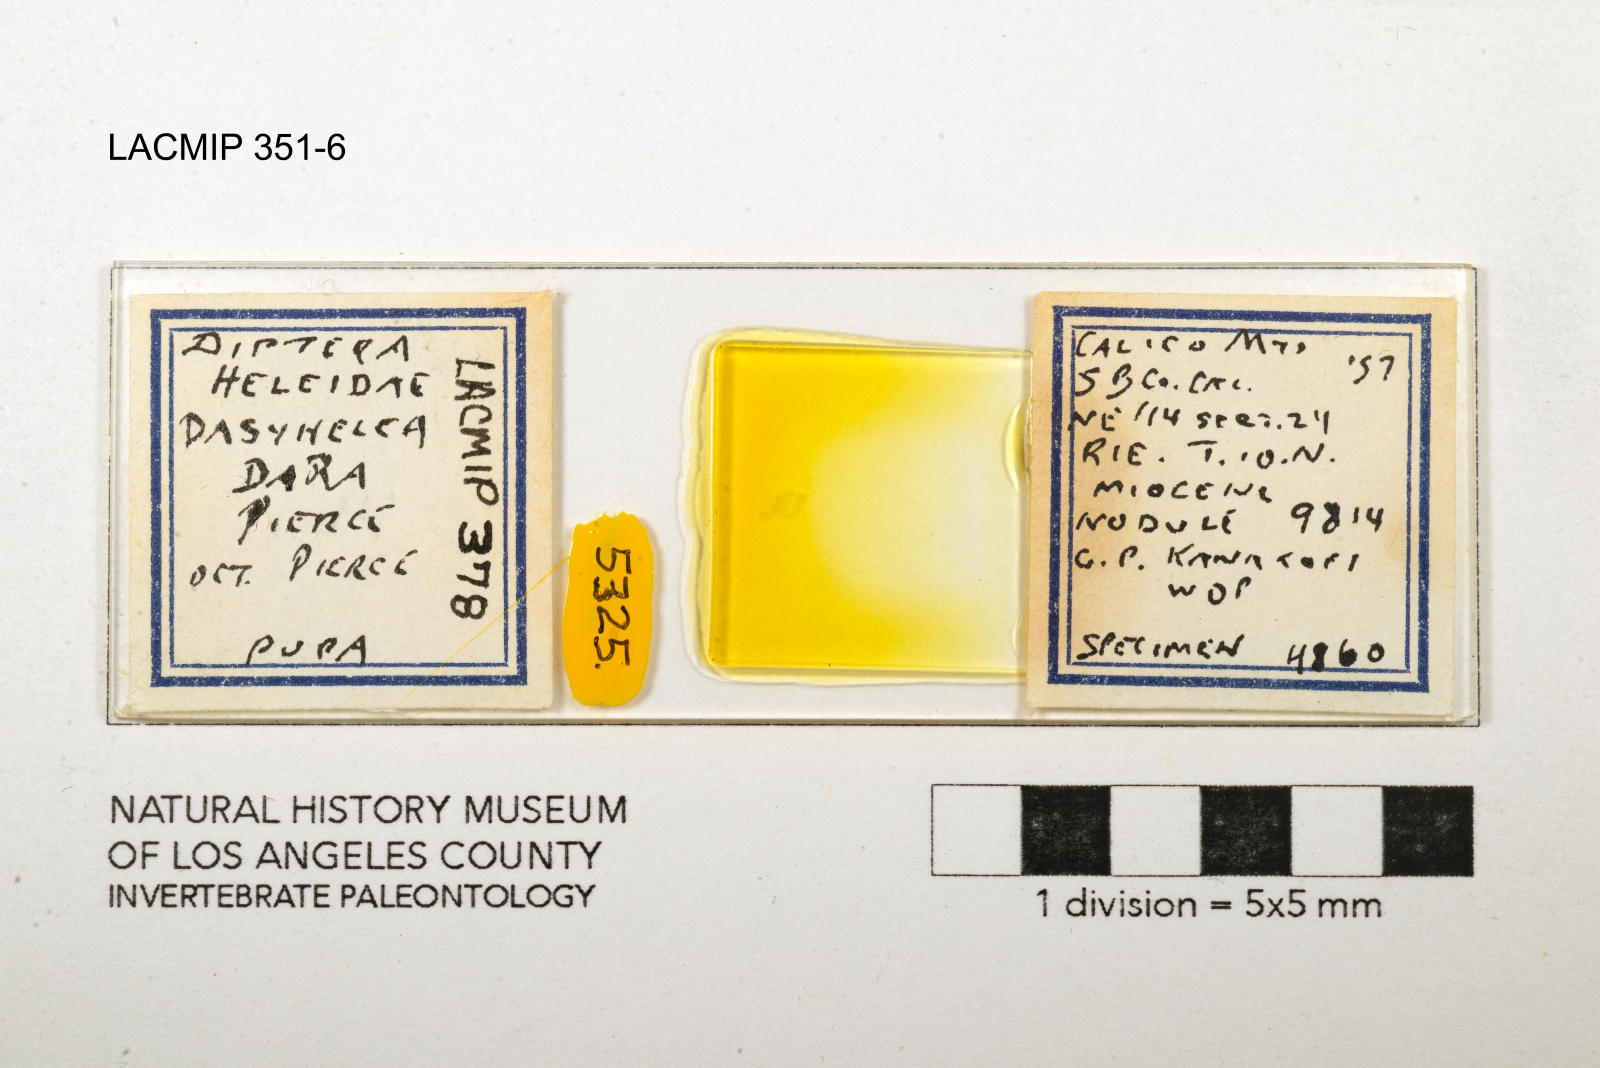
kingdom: Animalia
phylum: Arthropoda
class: Insecta
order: Diptera
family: Ceratopogonidae
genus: Dasyhelea
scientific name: Dasyhelea dara
